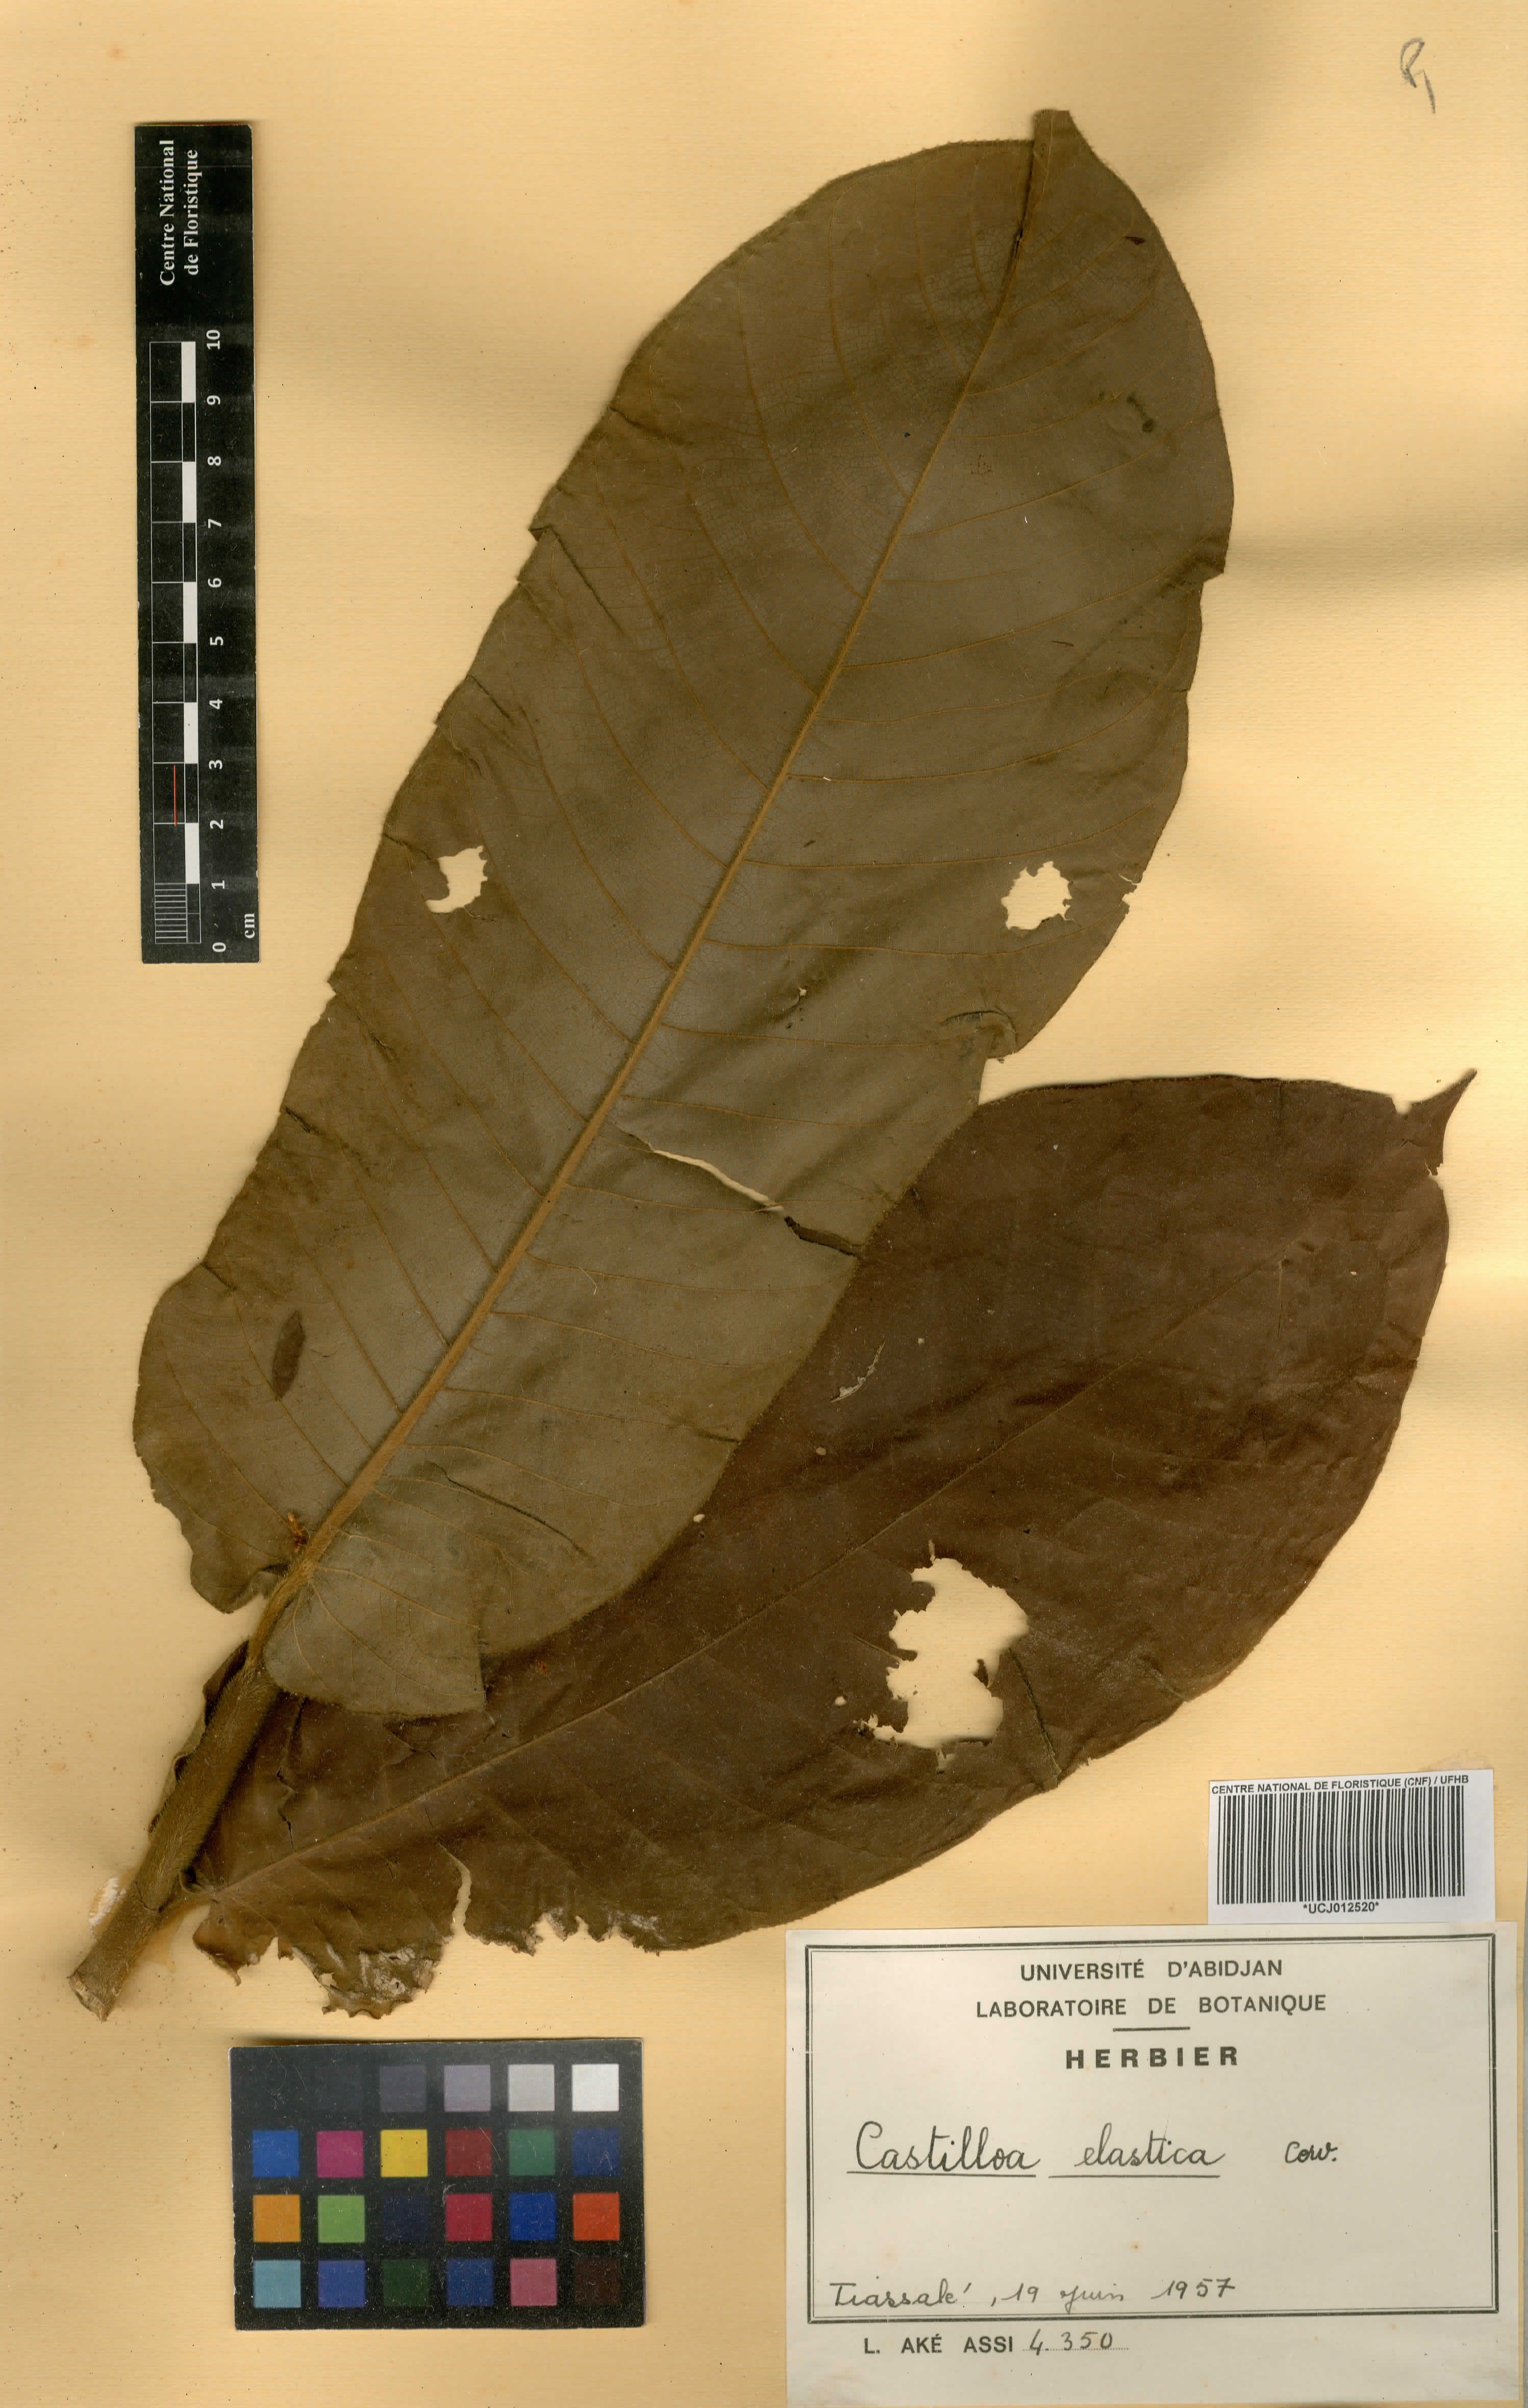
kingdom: Plantae
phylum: Tracheophyta
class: Magnoliopsida
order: Rosales
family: Moraceae
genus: Castilla
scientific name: Castilla elastica
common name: Castilla rubber
